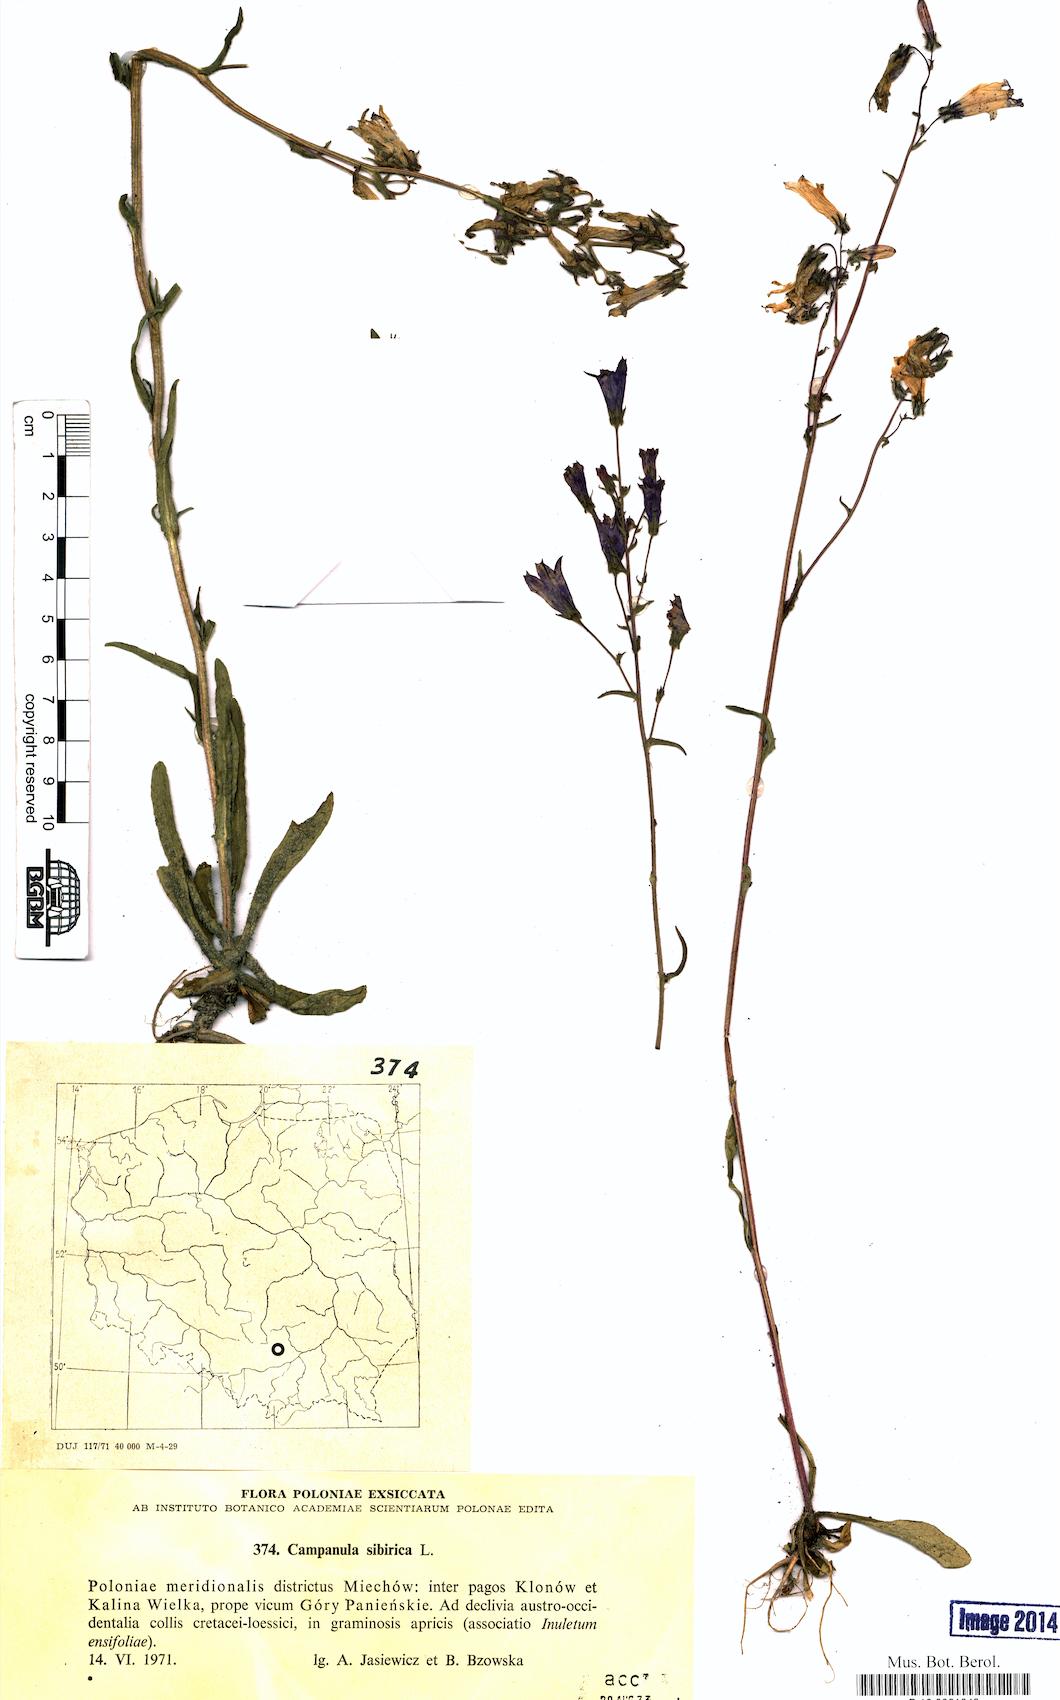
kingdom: Plantae
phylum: Tracheophyta
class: Magnoliopsida
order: Asterales
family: Campanulaceae
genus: Campanula
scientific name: Campanula sibirica
